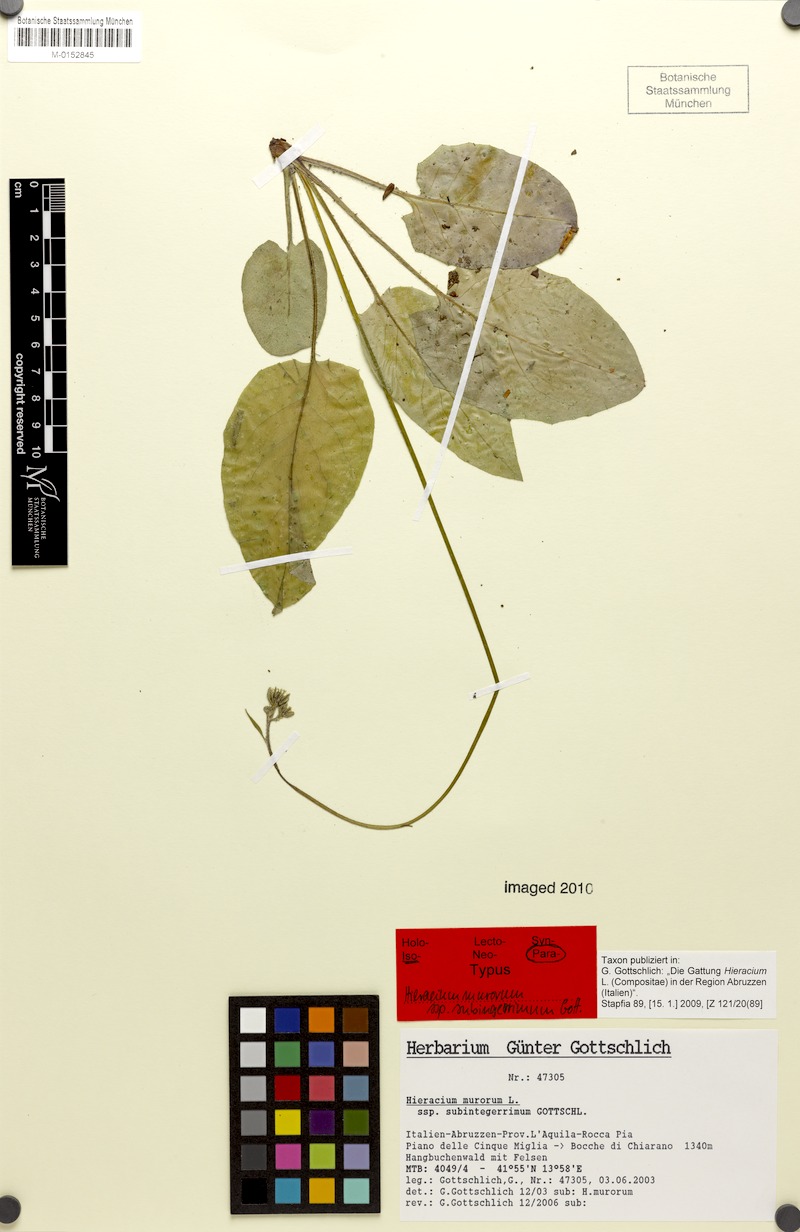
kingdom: Plantae
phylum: Tracheophyta
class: Magnoliopsida
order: Asterales
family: Asteraceae
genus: Hieracium
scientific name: Hieracium murorum
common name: Wall hawkweed
